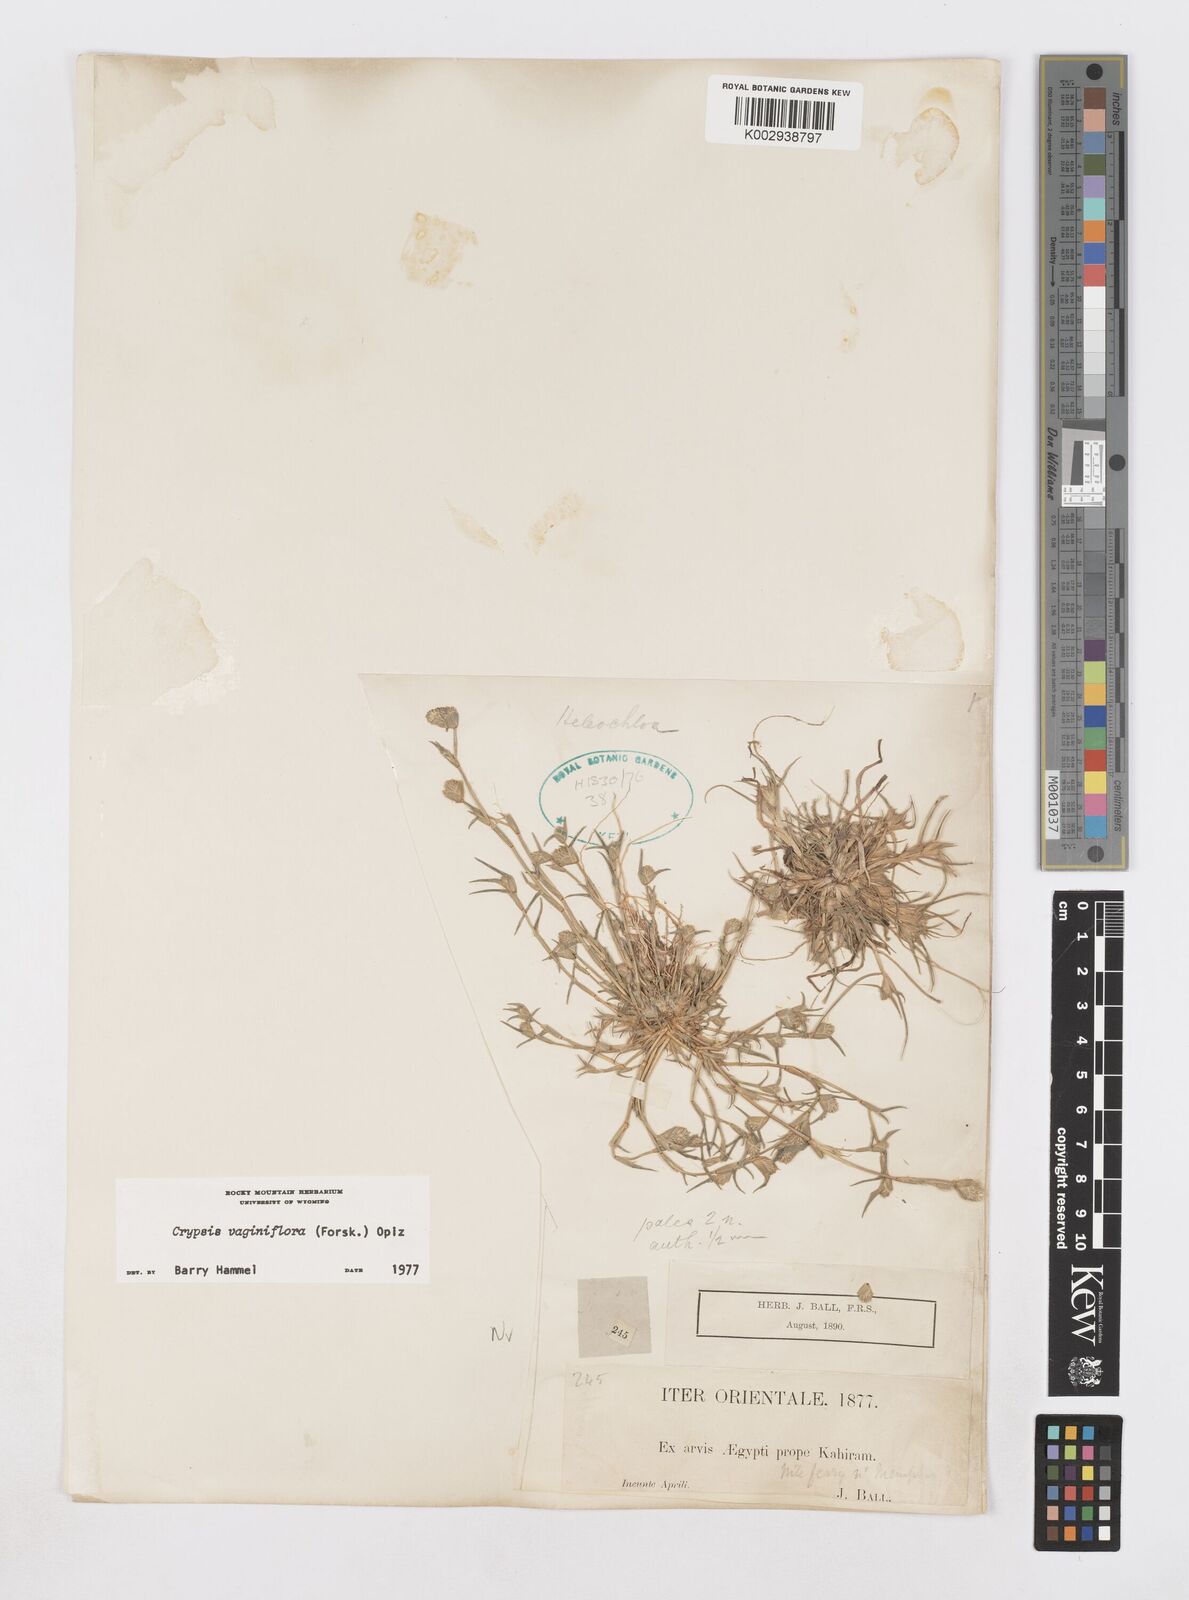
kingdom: Plantae
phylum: Tracheophyta
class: Liliopsida
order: Poales
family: Poaceae
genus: Sporobolus
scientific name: Sporobolus niliacus
